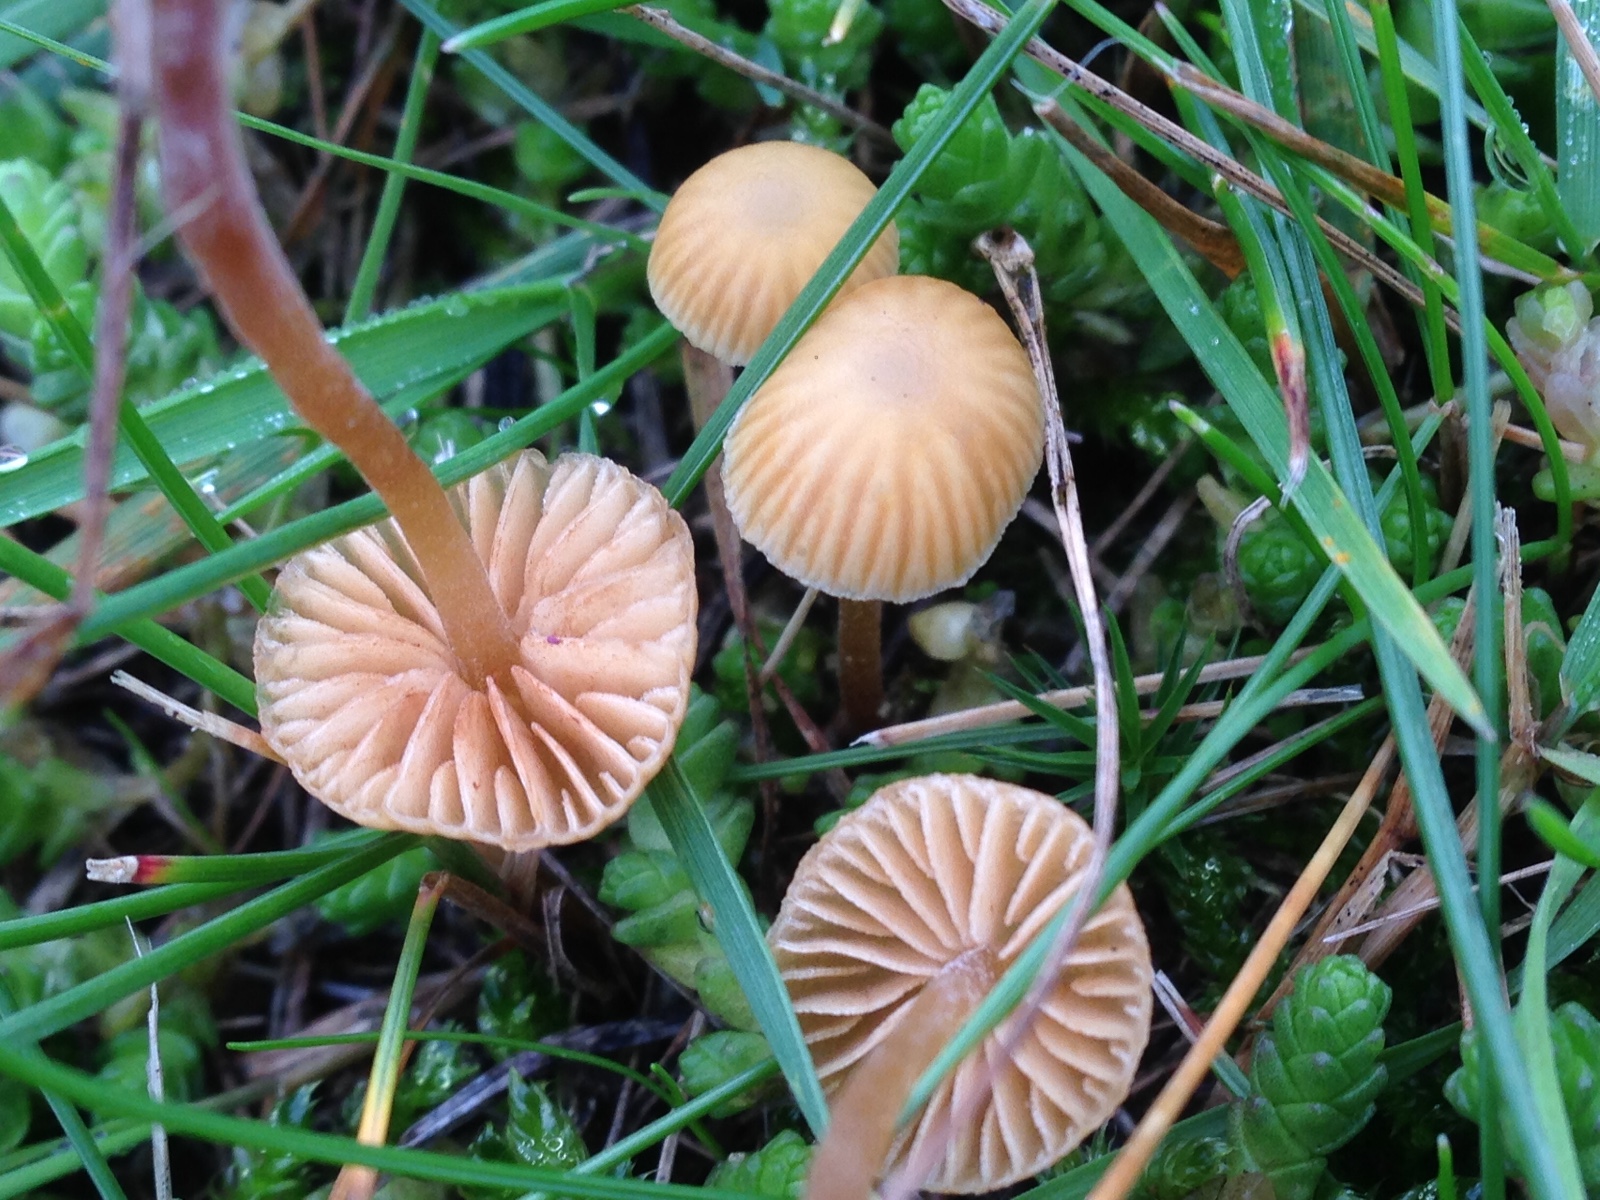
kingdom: Fungi
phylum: Basidiomycota
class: Agaricomycetes
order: Agaricales
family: Hymenogastraceae
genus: Galerina
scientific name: Galerina
